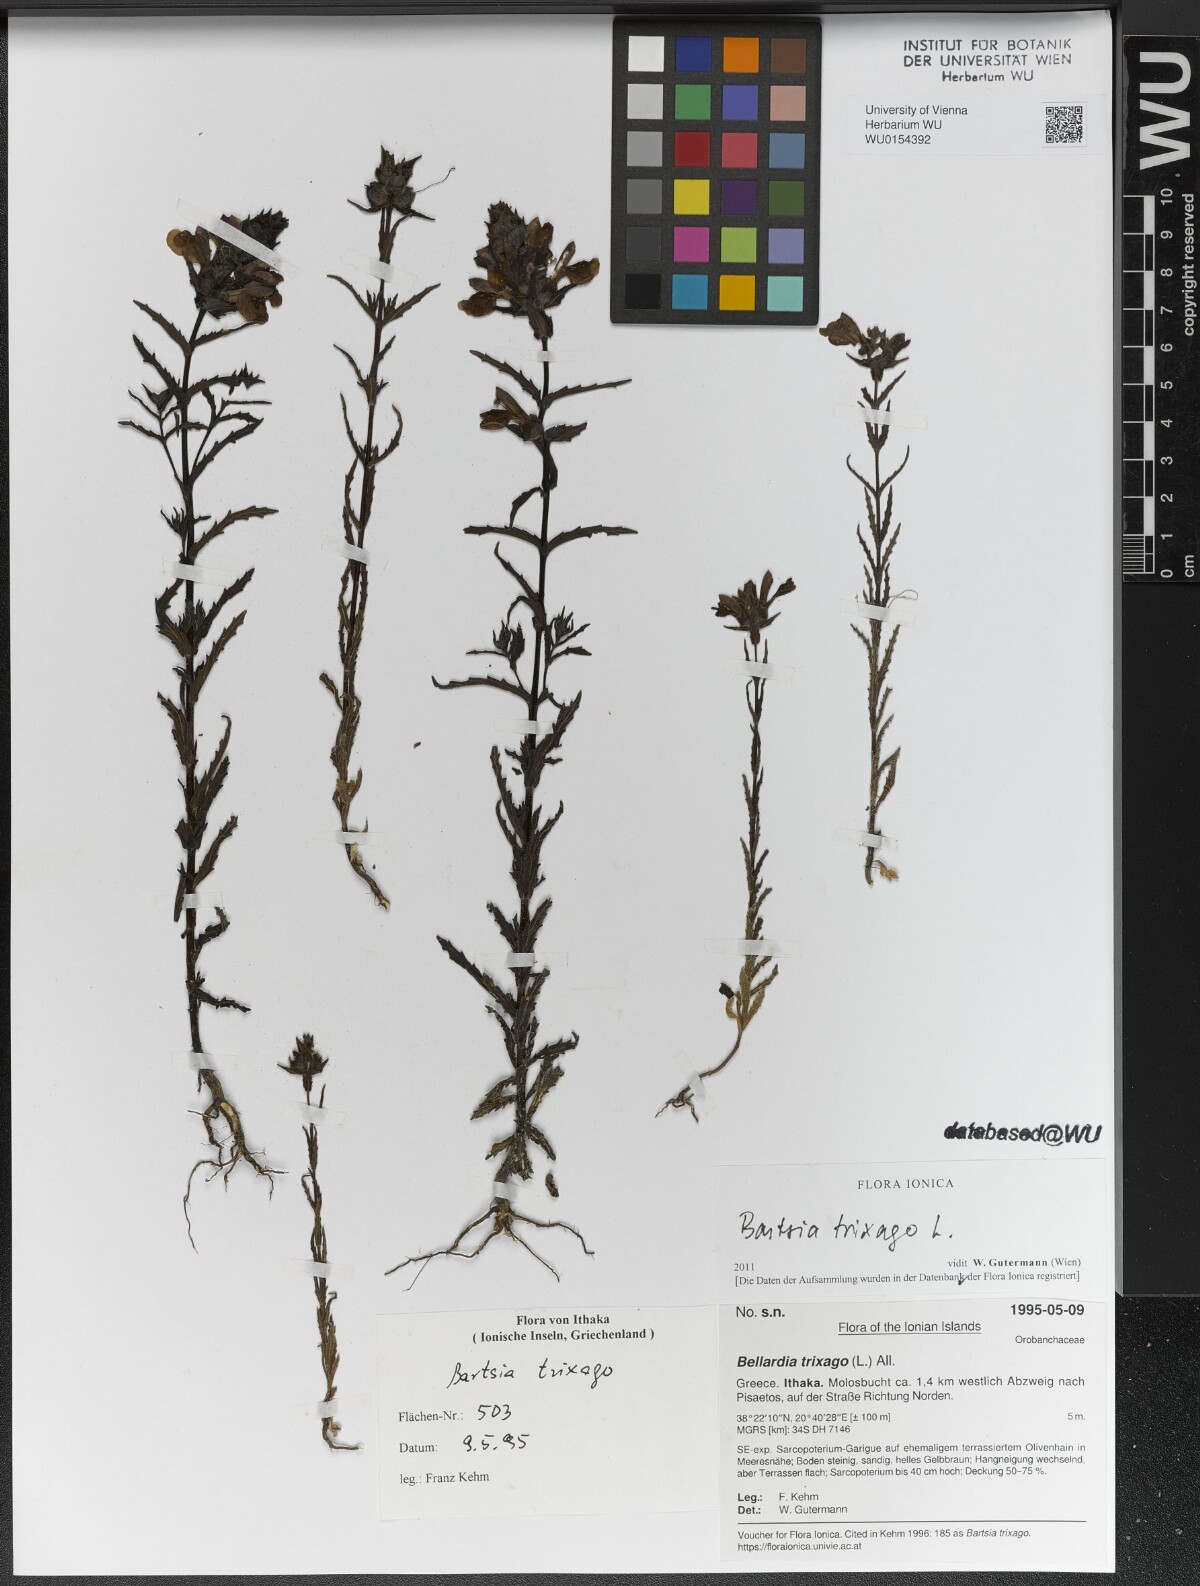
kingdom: Plantae
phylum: Tracheophyta
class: Magnoliopsida
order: Lamiales
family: Orobanchaceae
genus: Bellardia
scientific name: Bellardia trixago
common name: Mediterranean lineseed
